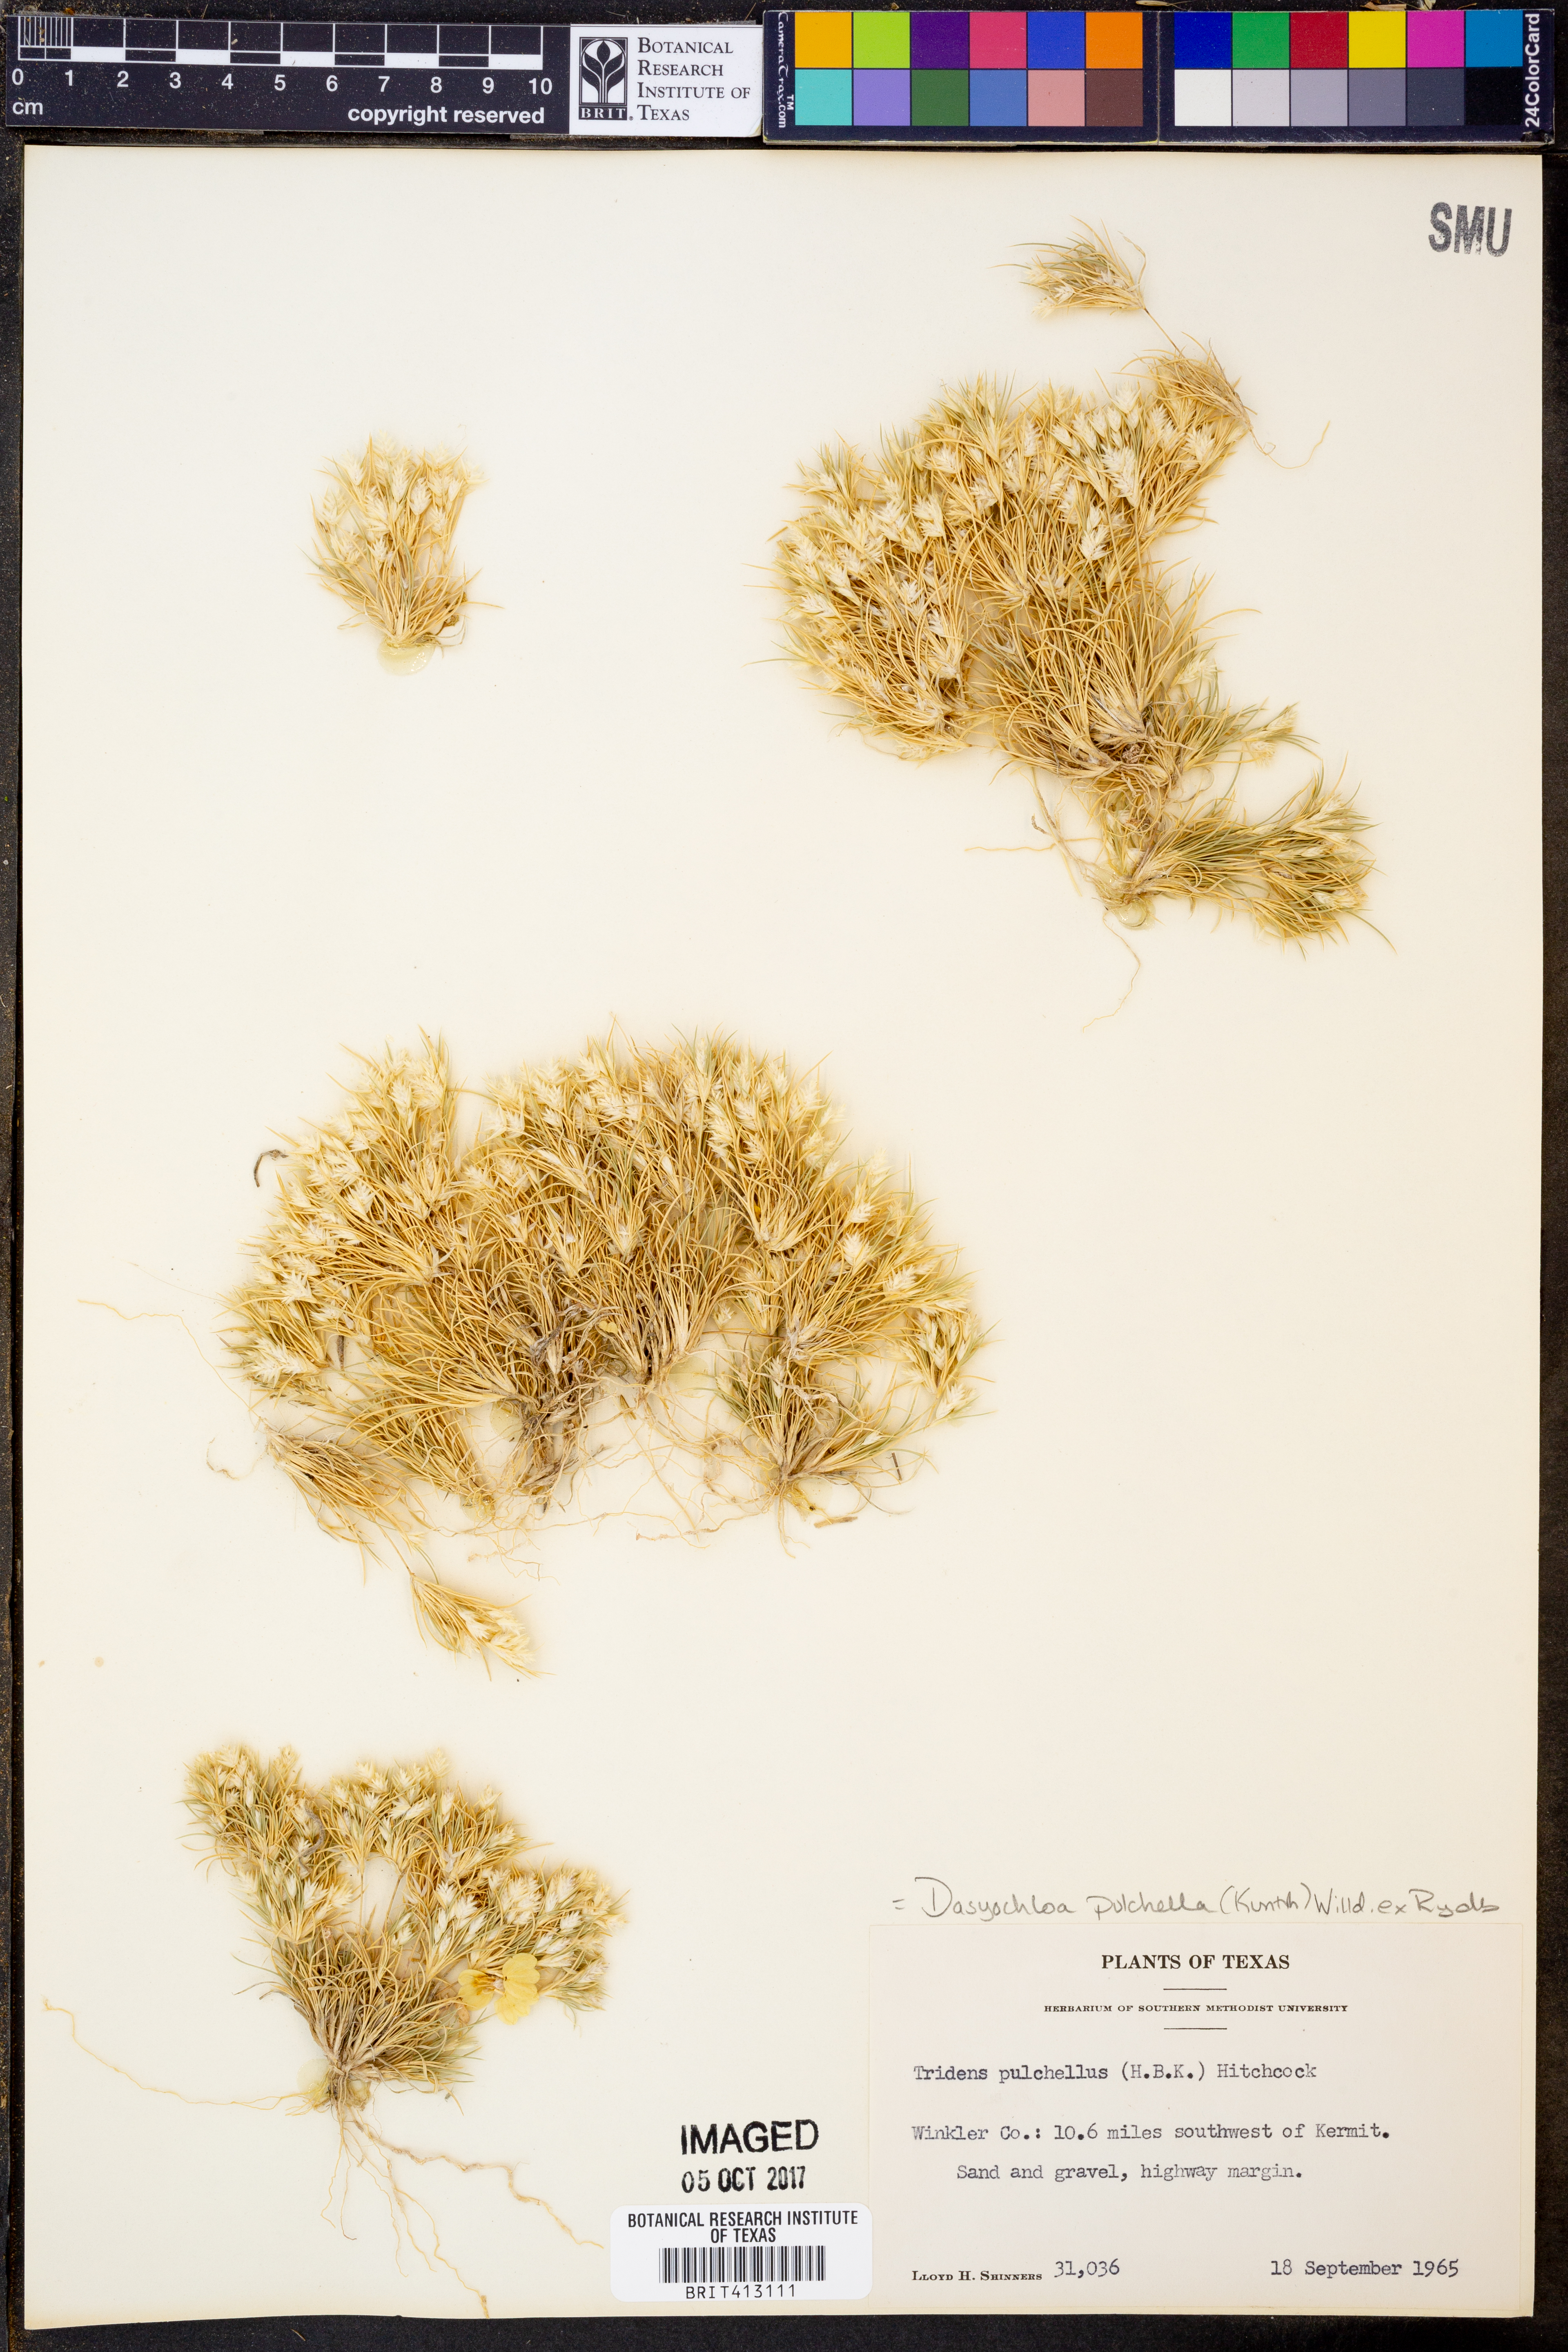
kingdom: Plantae
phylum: Tracheophyta
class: Liliopsida
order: Poales
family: Poaceae
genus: Munroa
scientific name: Munroa pulchella
